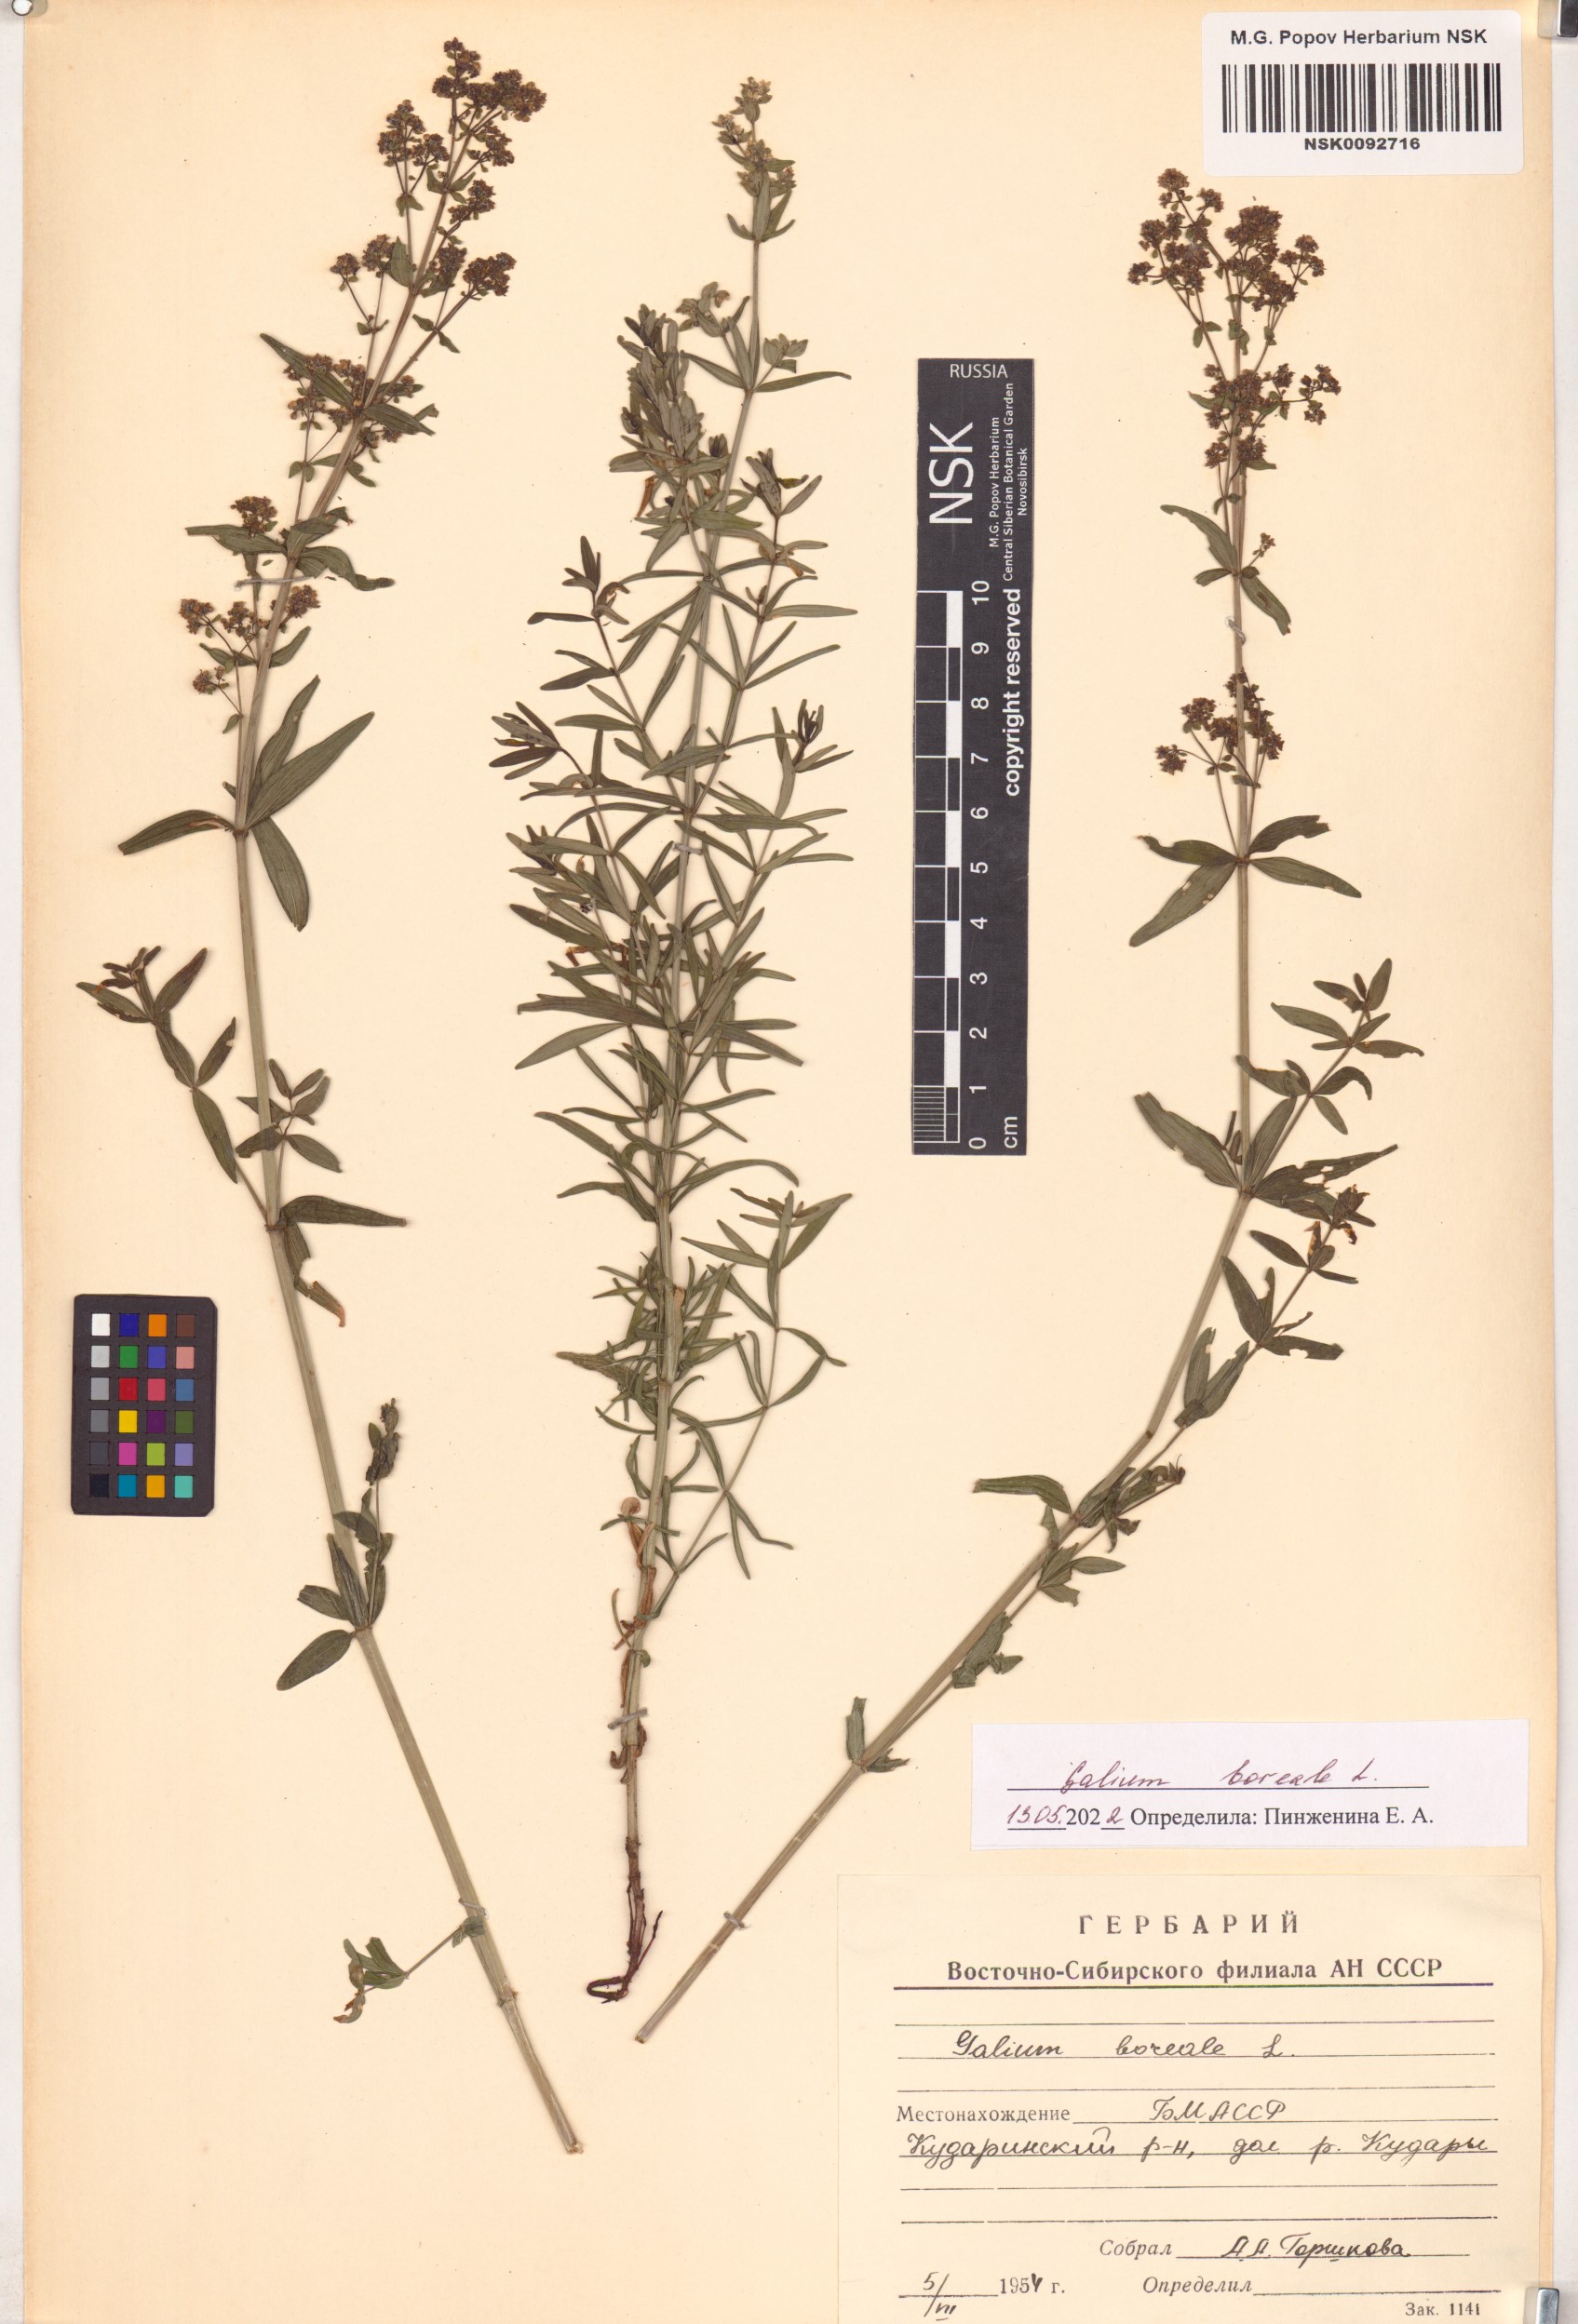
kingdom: Plantae
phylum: Tracheophyta
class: Magnoliopsida
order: Gentianales
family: Rubiaceae
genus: Galium
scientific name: Galium boreale
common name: Northern bedstraw
